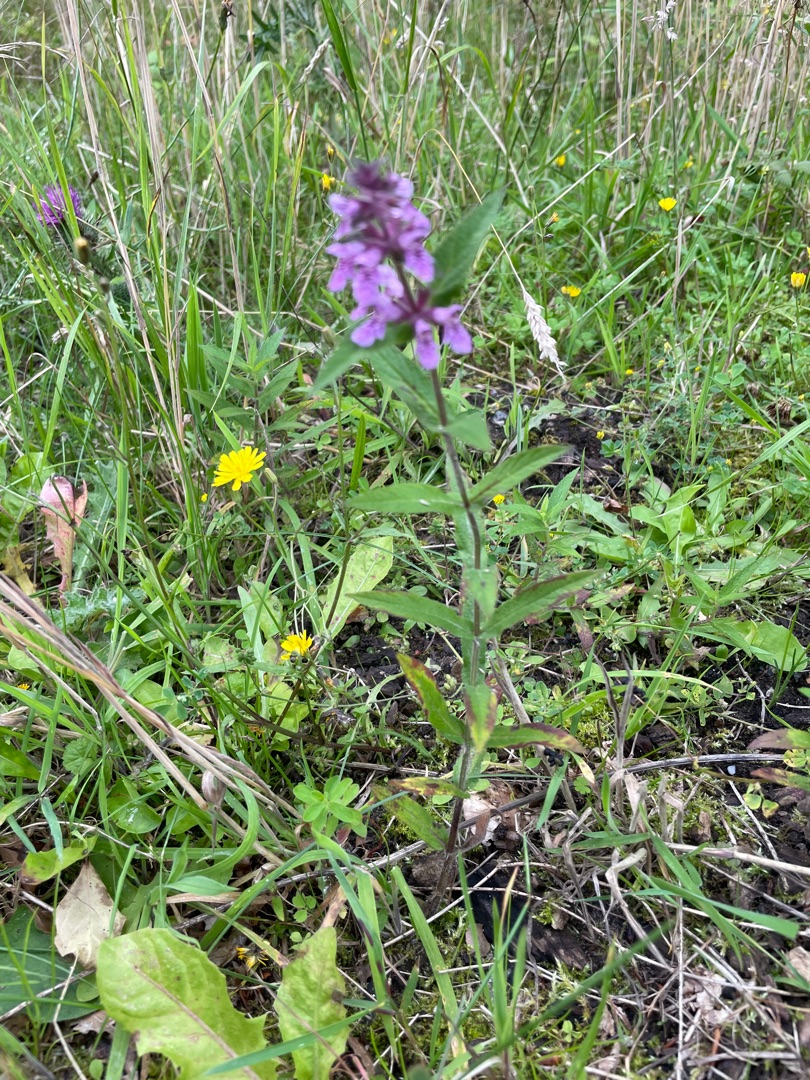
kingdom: Plantae
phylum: Tracheophyta
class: Magnoliopsida
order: Lamiales
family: Lamiaceae
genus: Stachys
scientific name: Stachys palustris
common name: Kær-galtetand
